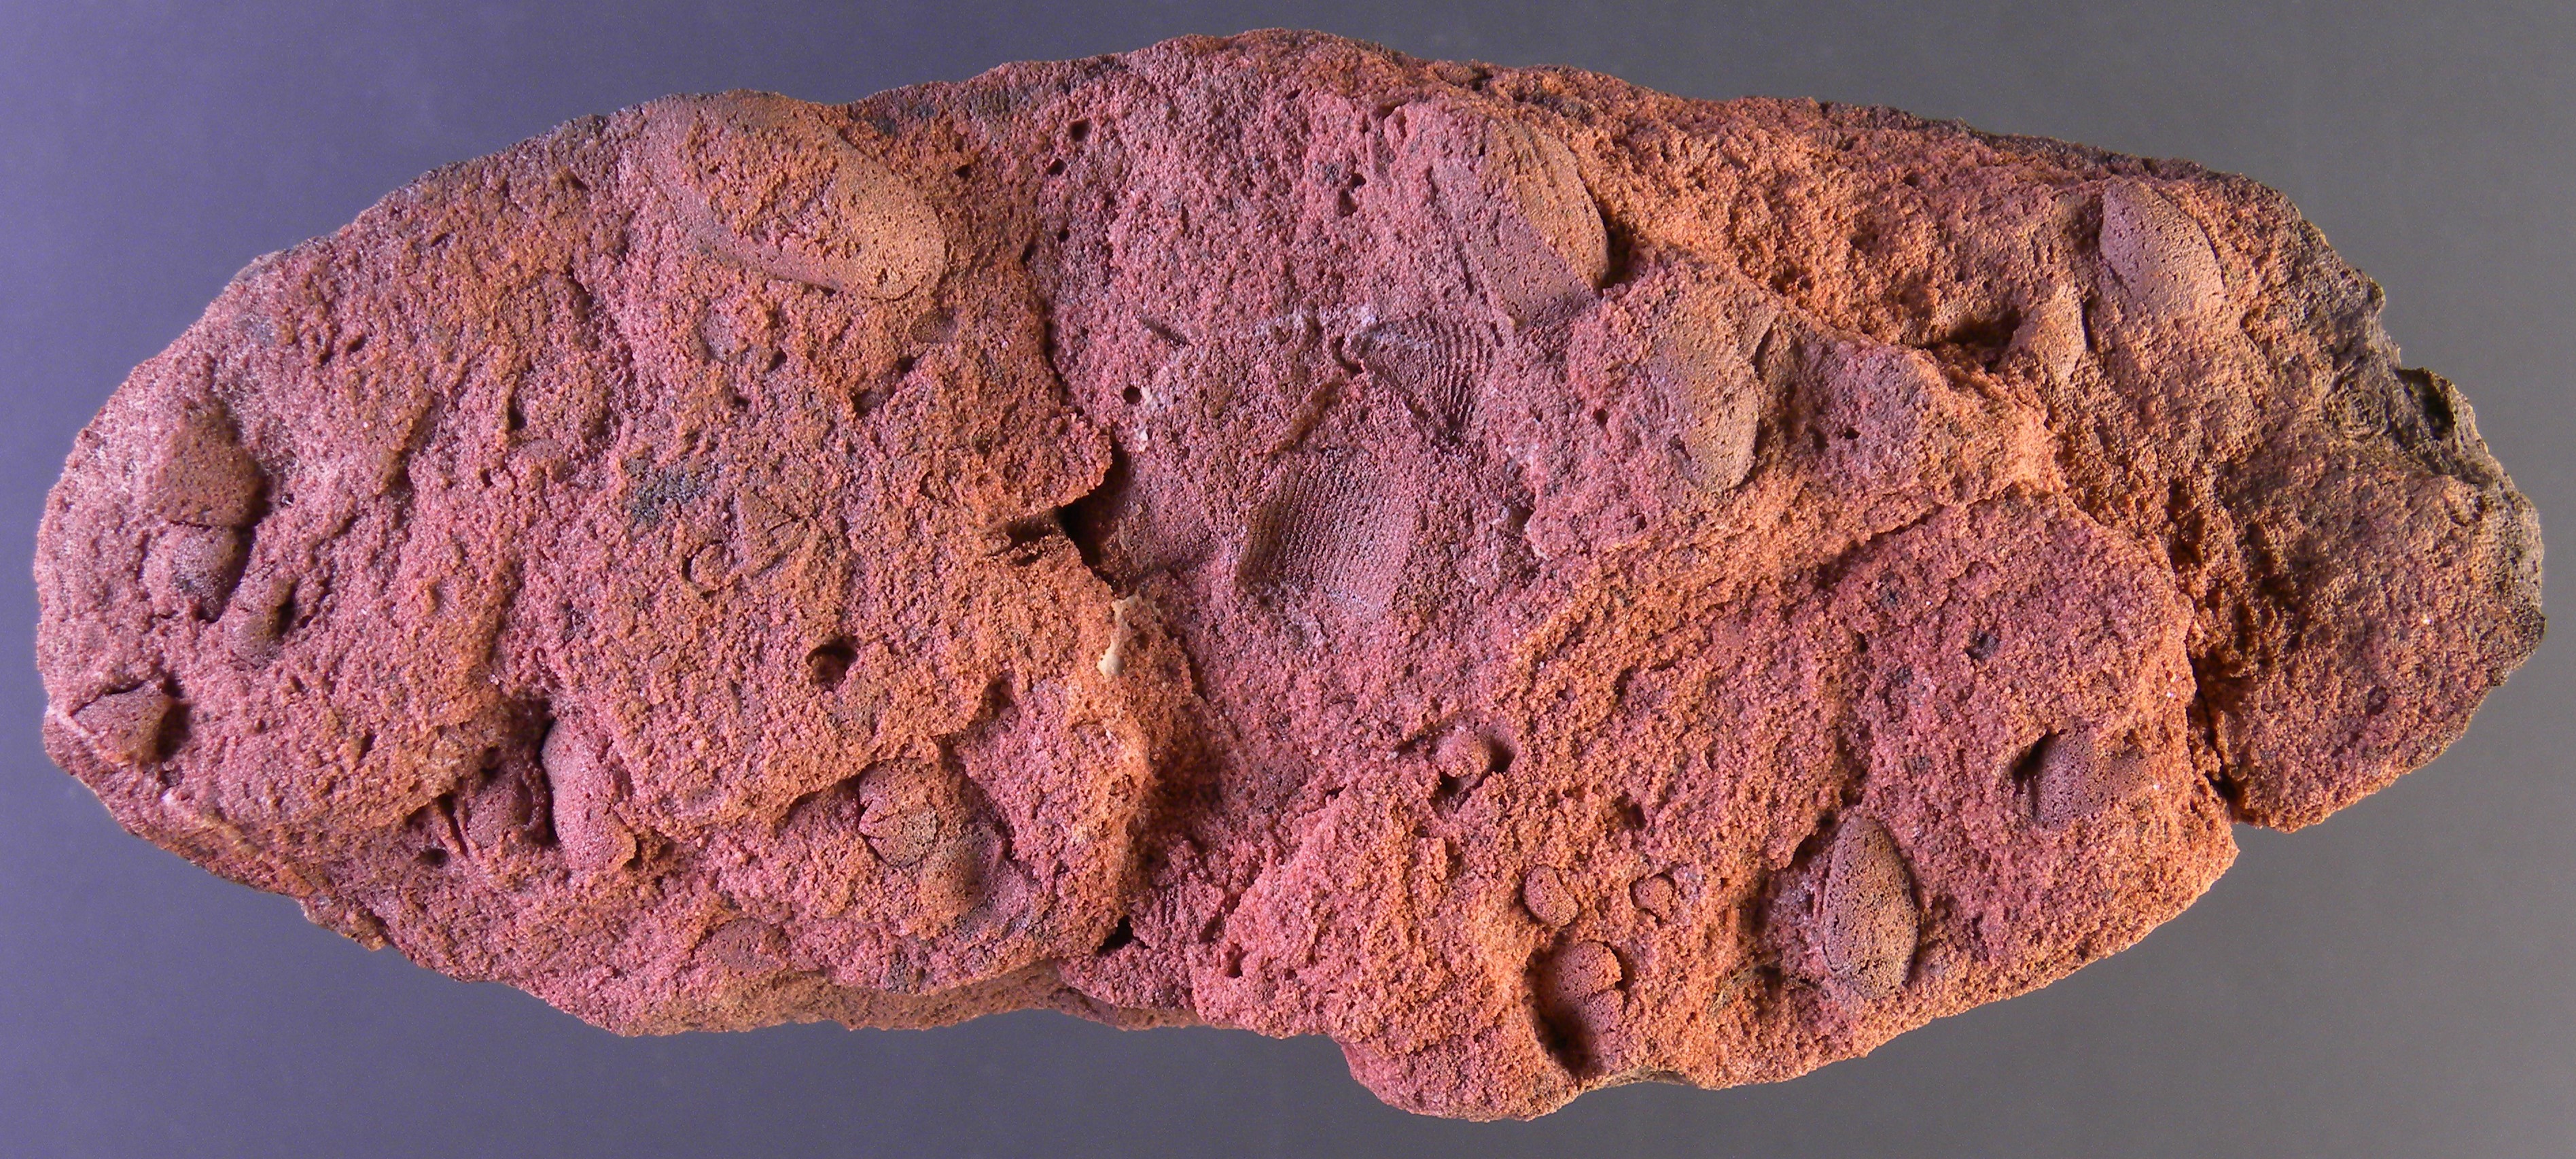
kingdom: Animalia
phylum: Mollusca
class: Cephalopoda
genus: Spiroceras
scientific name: Spiroceras
